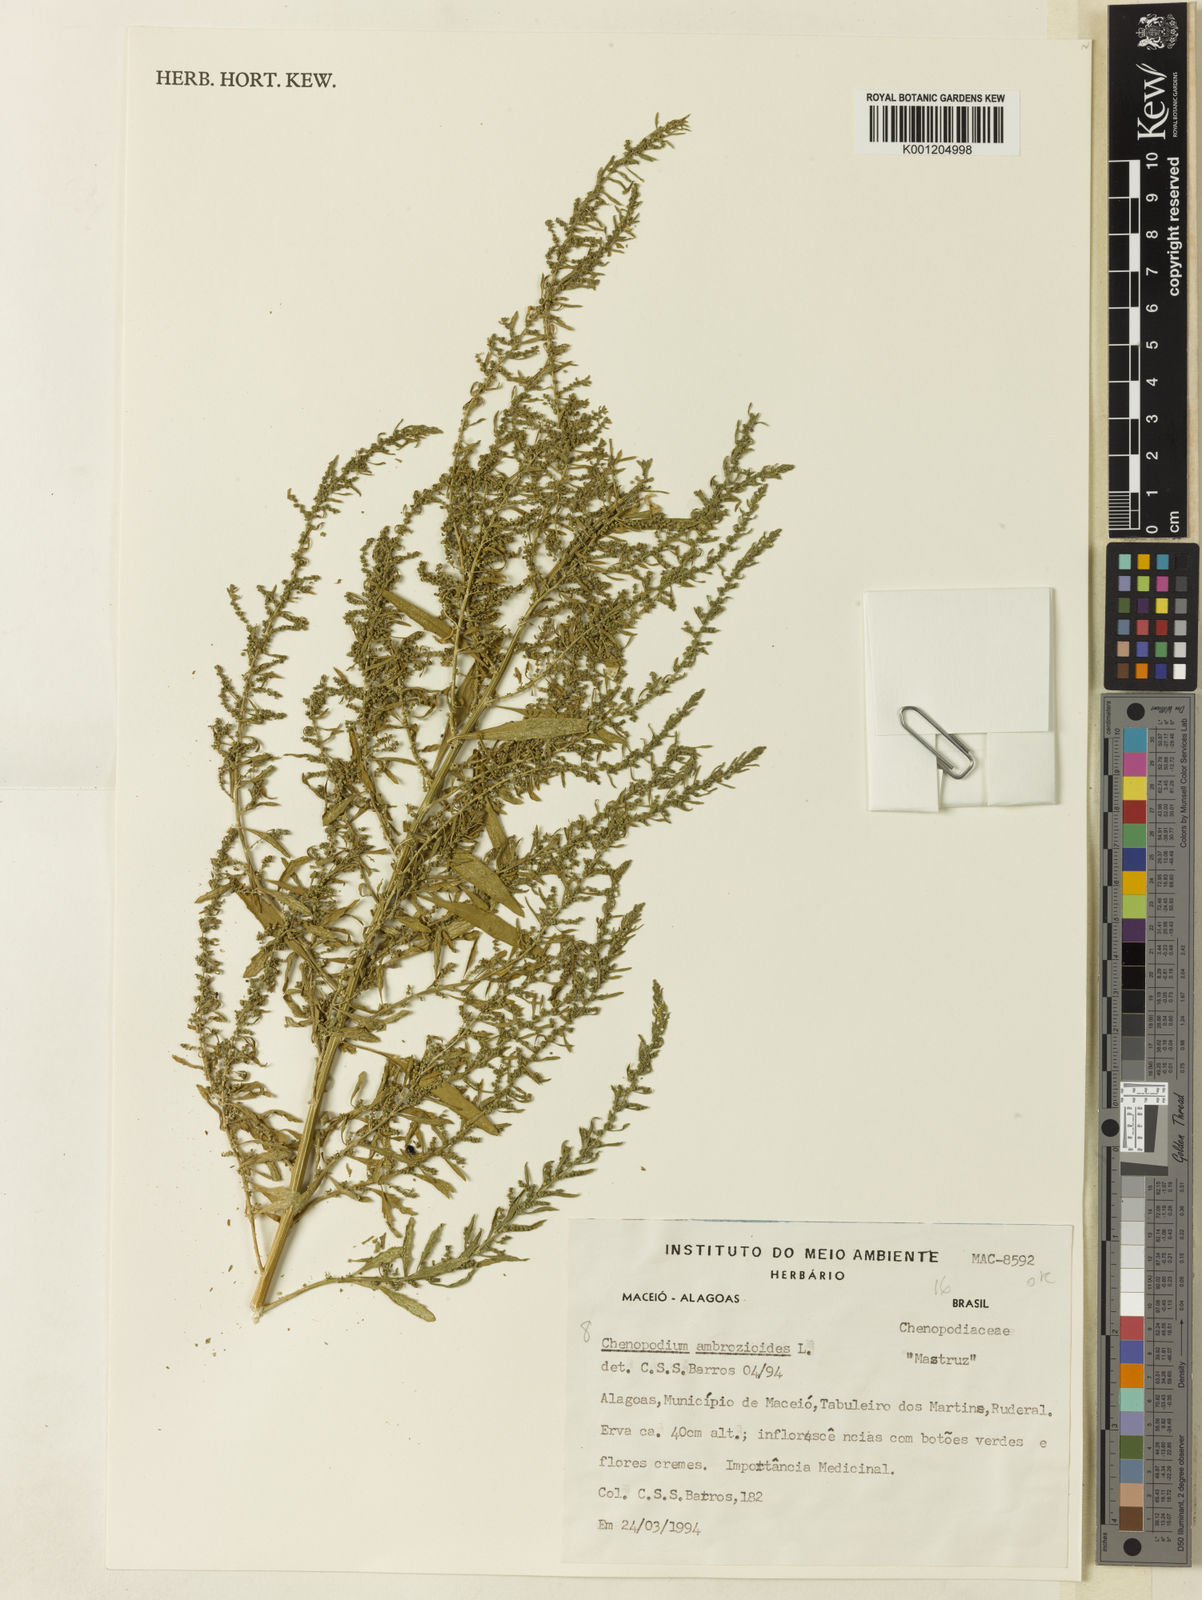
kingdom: Plantae
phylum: Tracheophyta
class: Magnoliopsida
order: Caryophyllales
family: Amaranthaceae
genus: Dysphania
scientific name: Dysphania ambrosioides
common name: Wormseed
